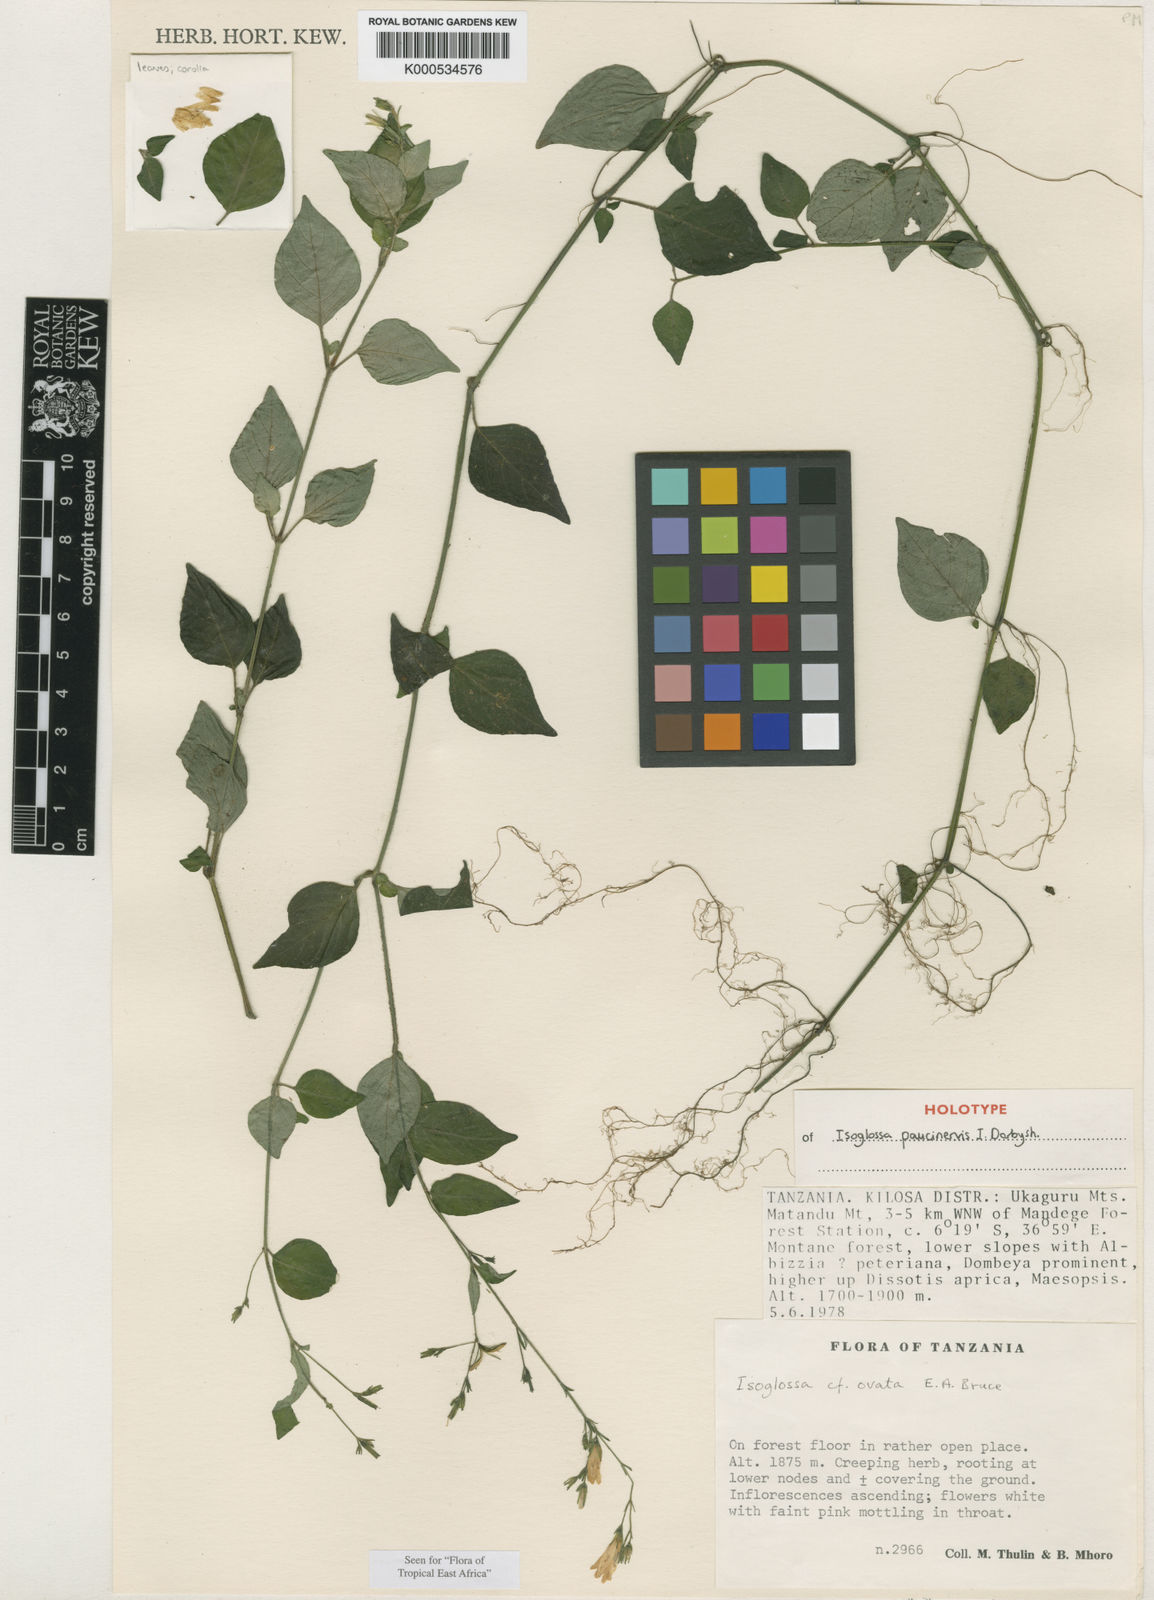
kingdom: Plantae
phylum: Tracheophyta
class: Magnoliopsida
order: Lamiales
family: Acanthaceae
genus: Isoglossa
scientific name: Isoglossa paucinervis
